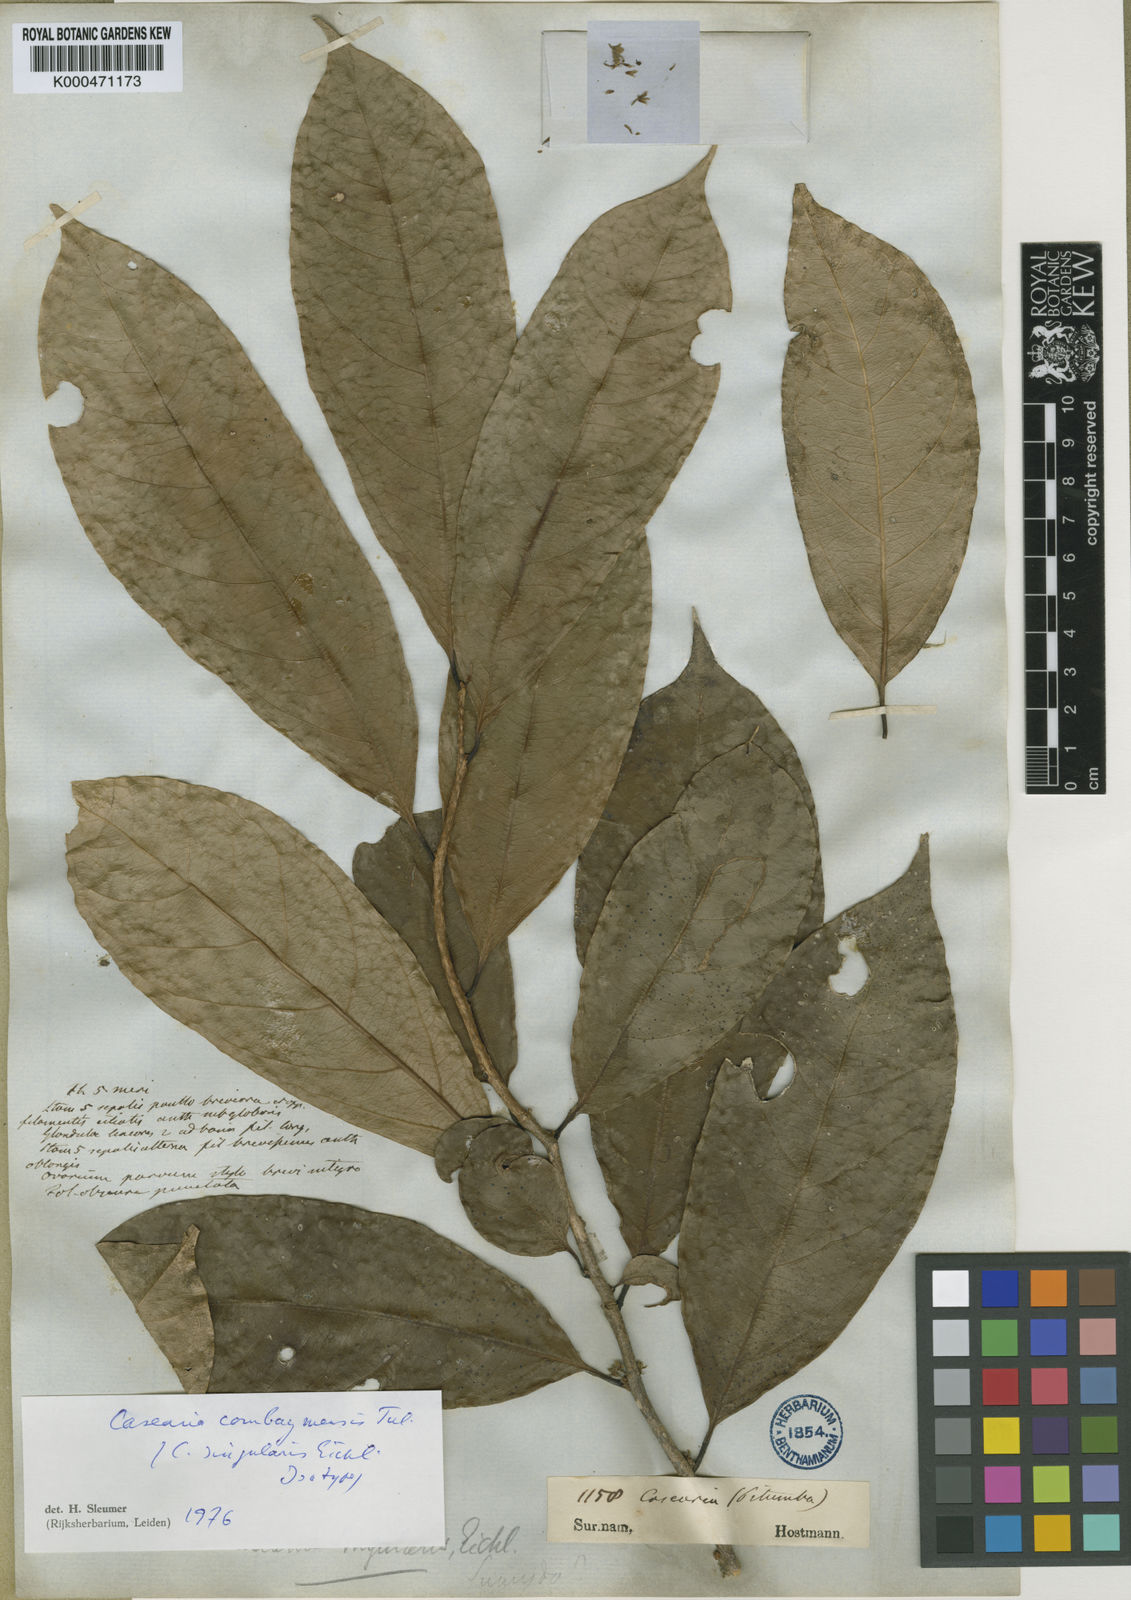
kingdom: Plantae
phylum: Tracheophyta
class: Magnoliopsida
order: Malpighiales
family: Salicaceae
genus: Casearia
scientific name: Casearia combaymensis
